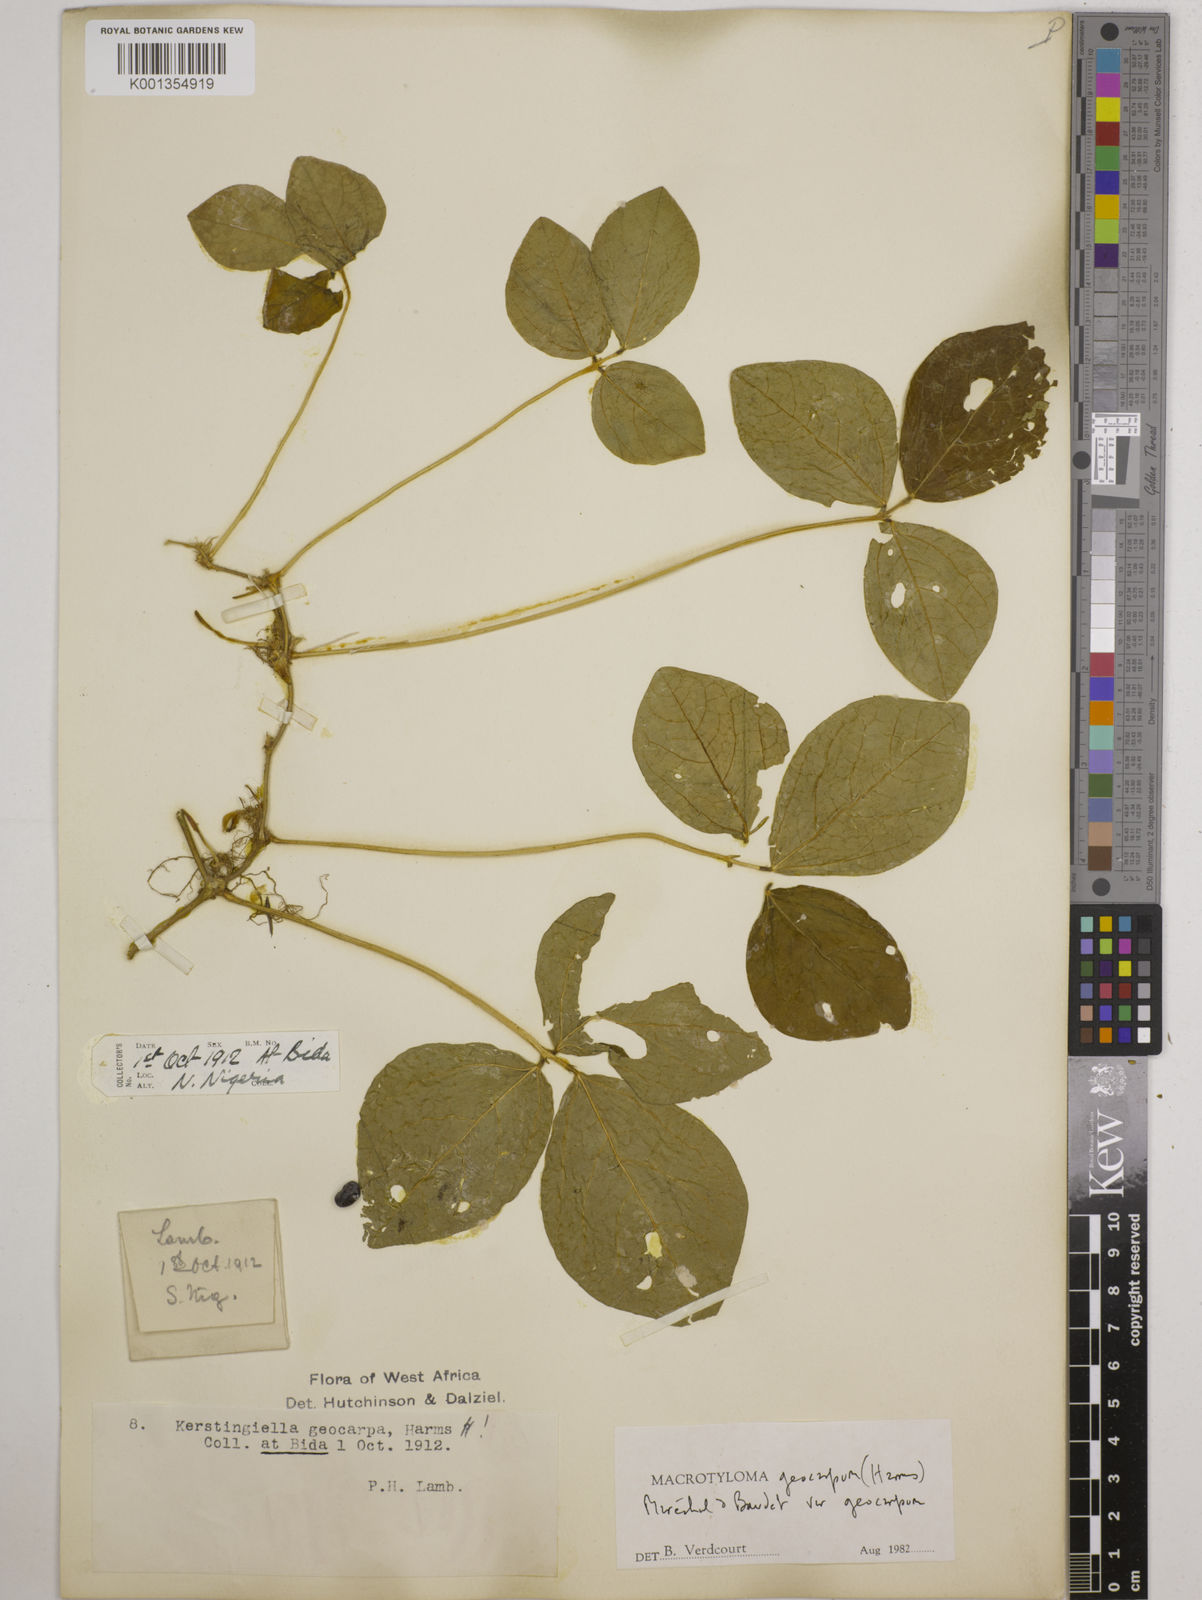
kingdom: Plantae
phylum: Tracheophyta
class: Magnoliopsida
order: Fabales
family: Fabaceae
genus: Macrotyloma
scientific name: Macrotyloma geocarpum
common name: Ground-bean
